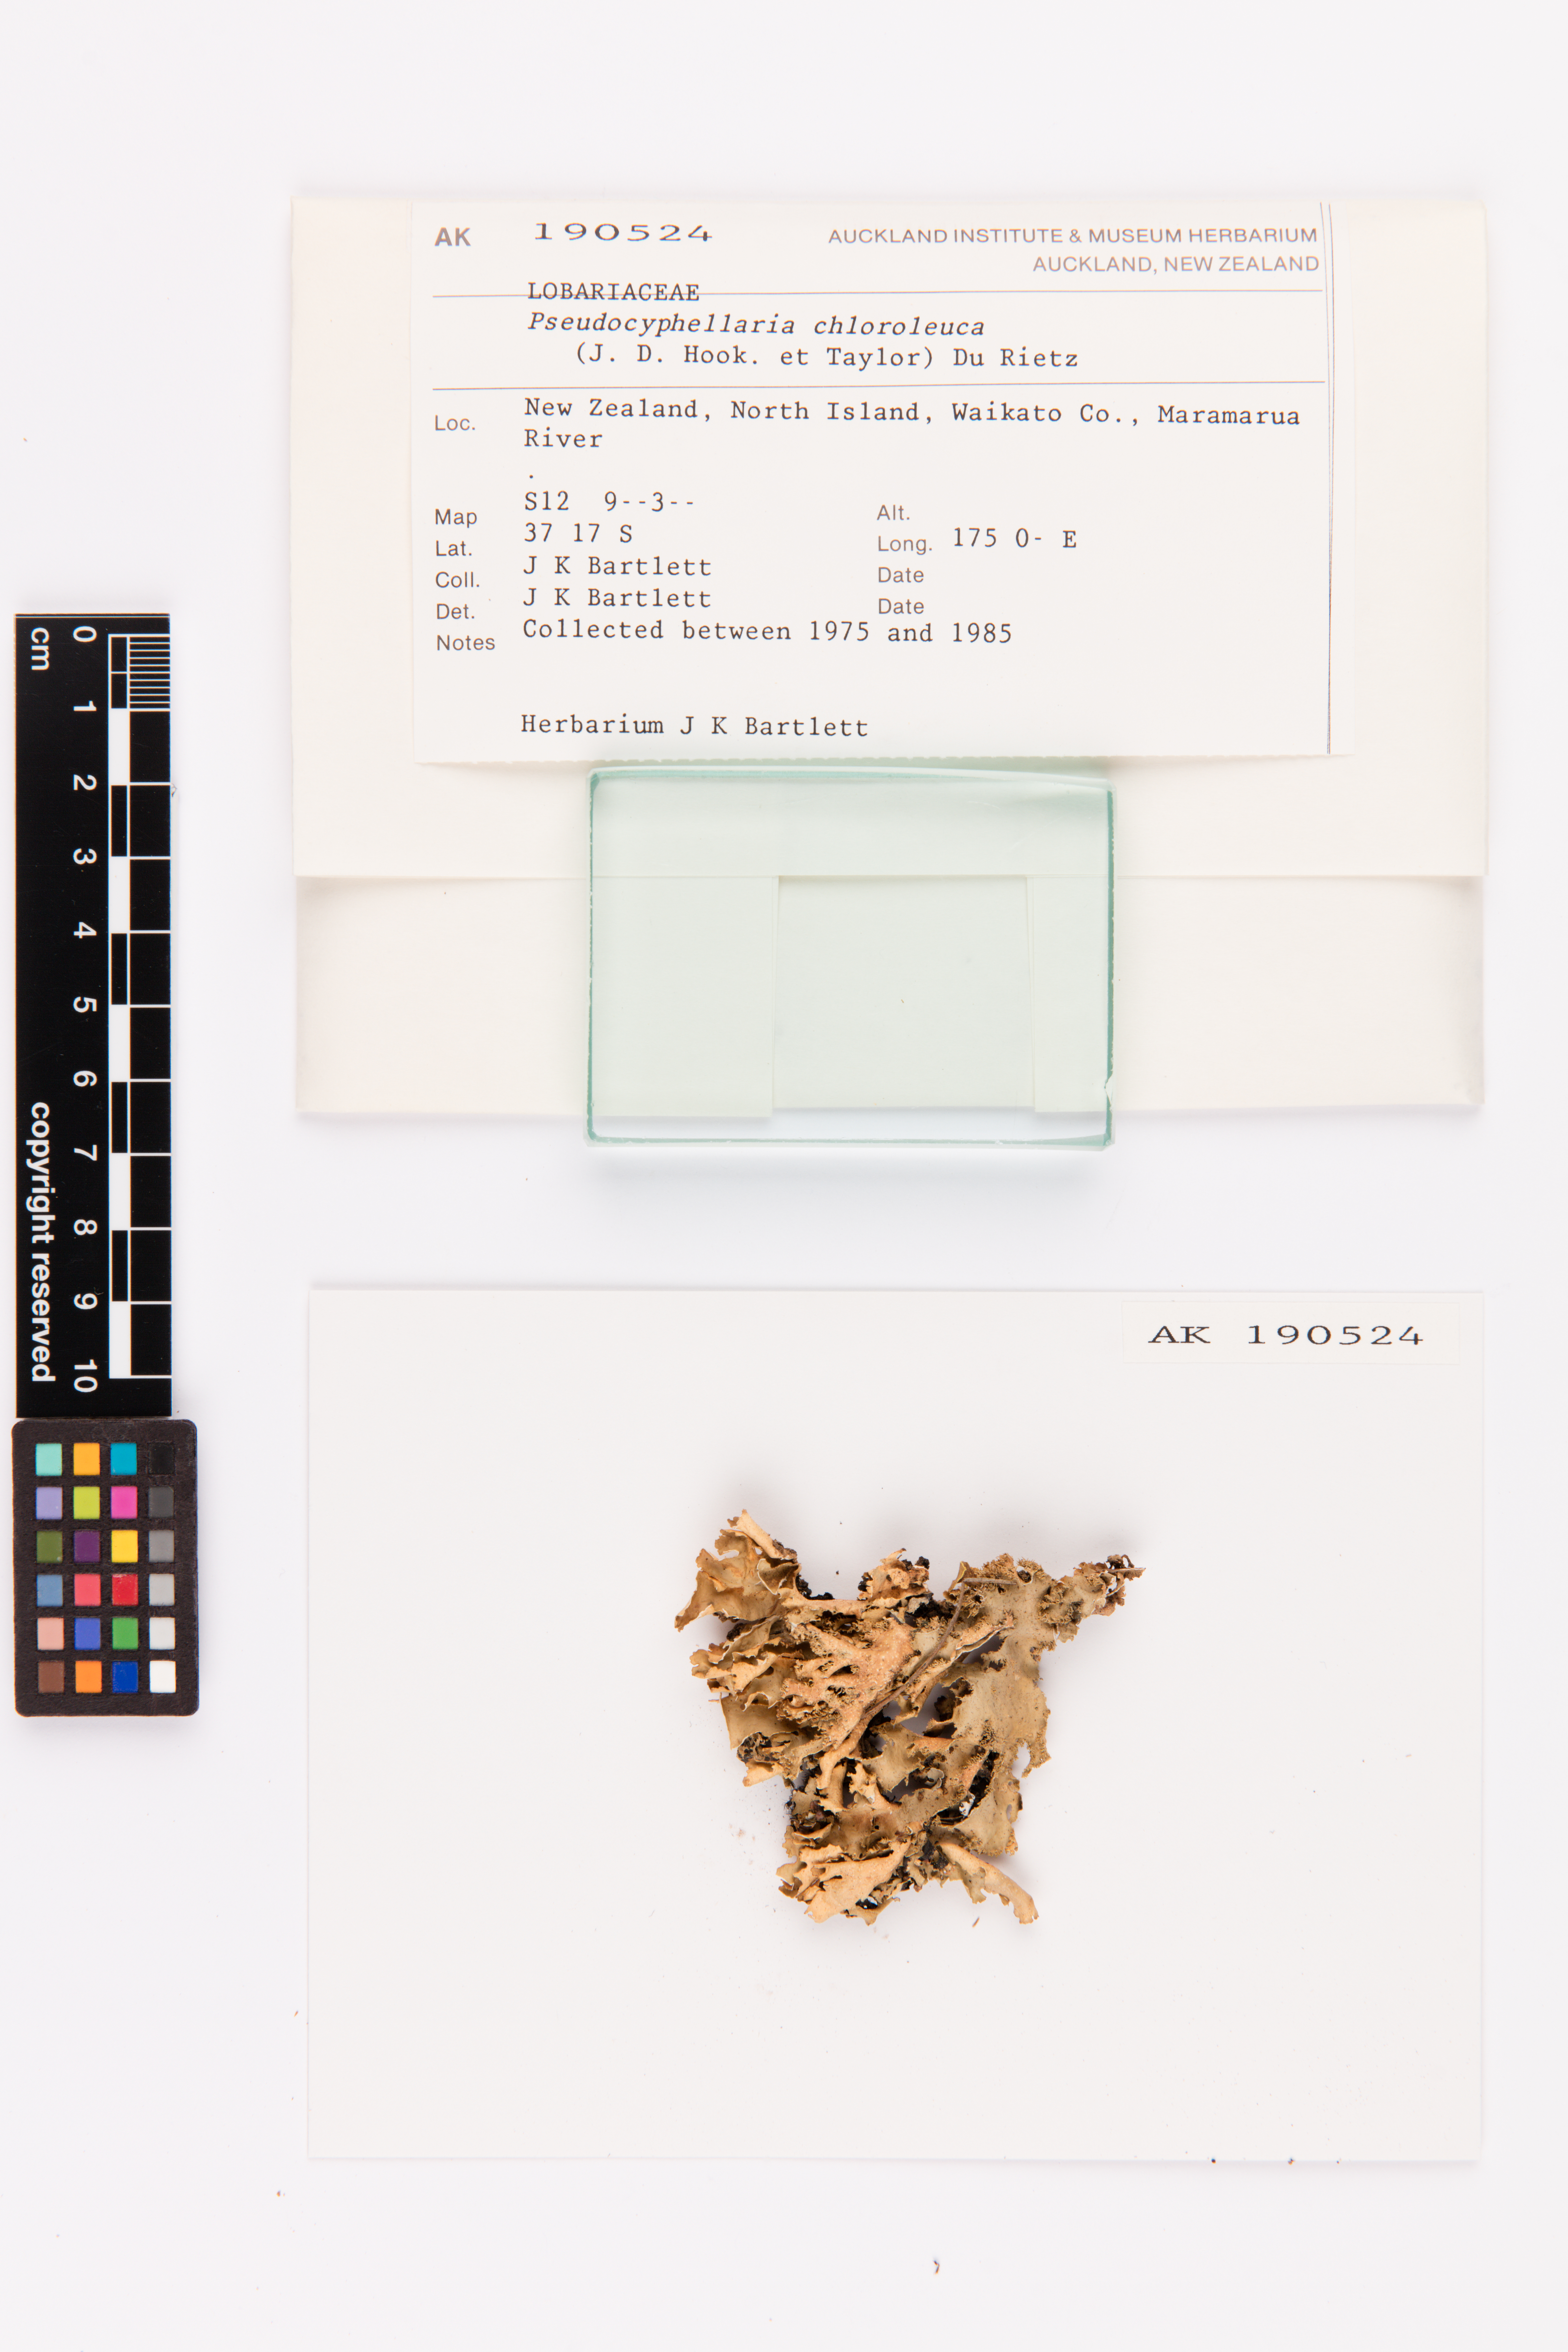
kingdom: Fungi
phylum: Ascomycota
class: Lecanoromycetes
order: Peltigerales
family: Lobariaceae
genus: Pseudocyphellaria
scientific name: Pseudocyphellaria chloroleuca
